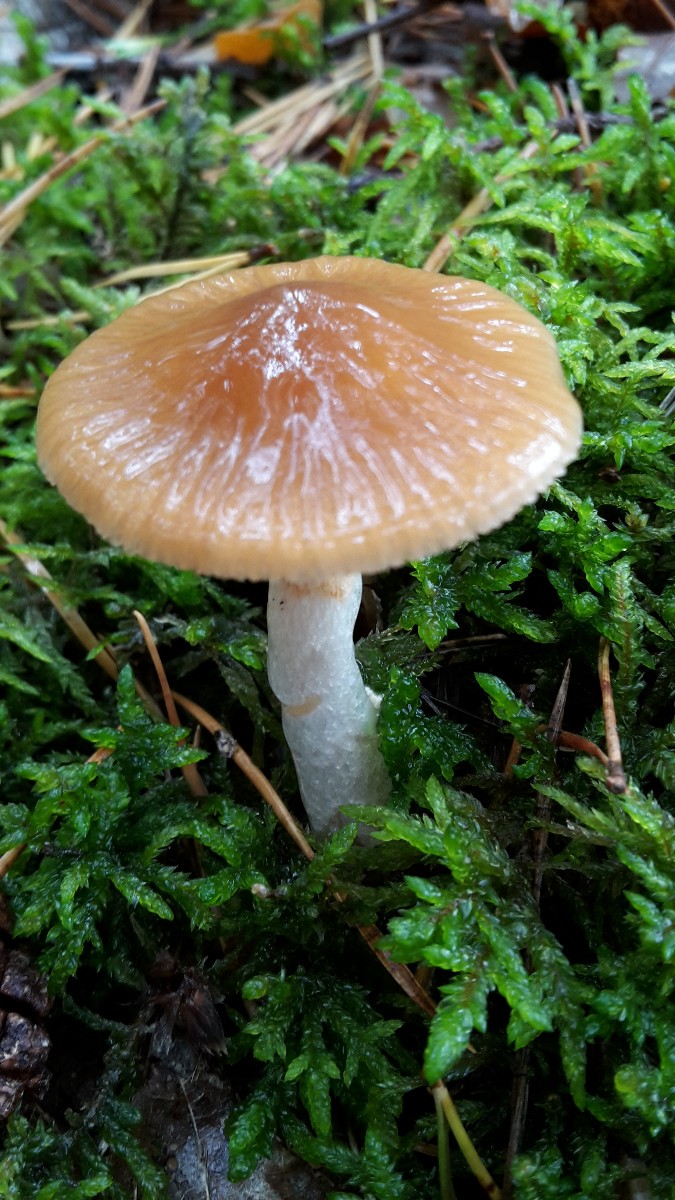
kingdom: Fungi
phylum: Basidiomycota
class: Agaricomycetes
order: Agaricales
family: Cortinariaceae
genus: Cortinarius
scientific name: Cortinarius mucifluus
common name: rynket slørhat
